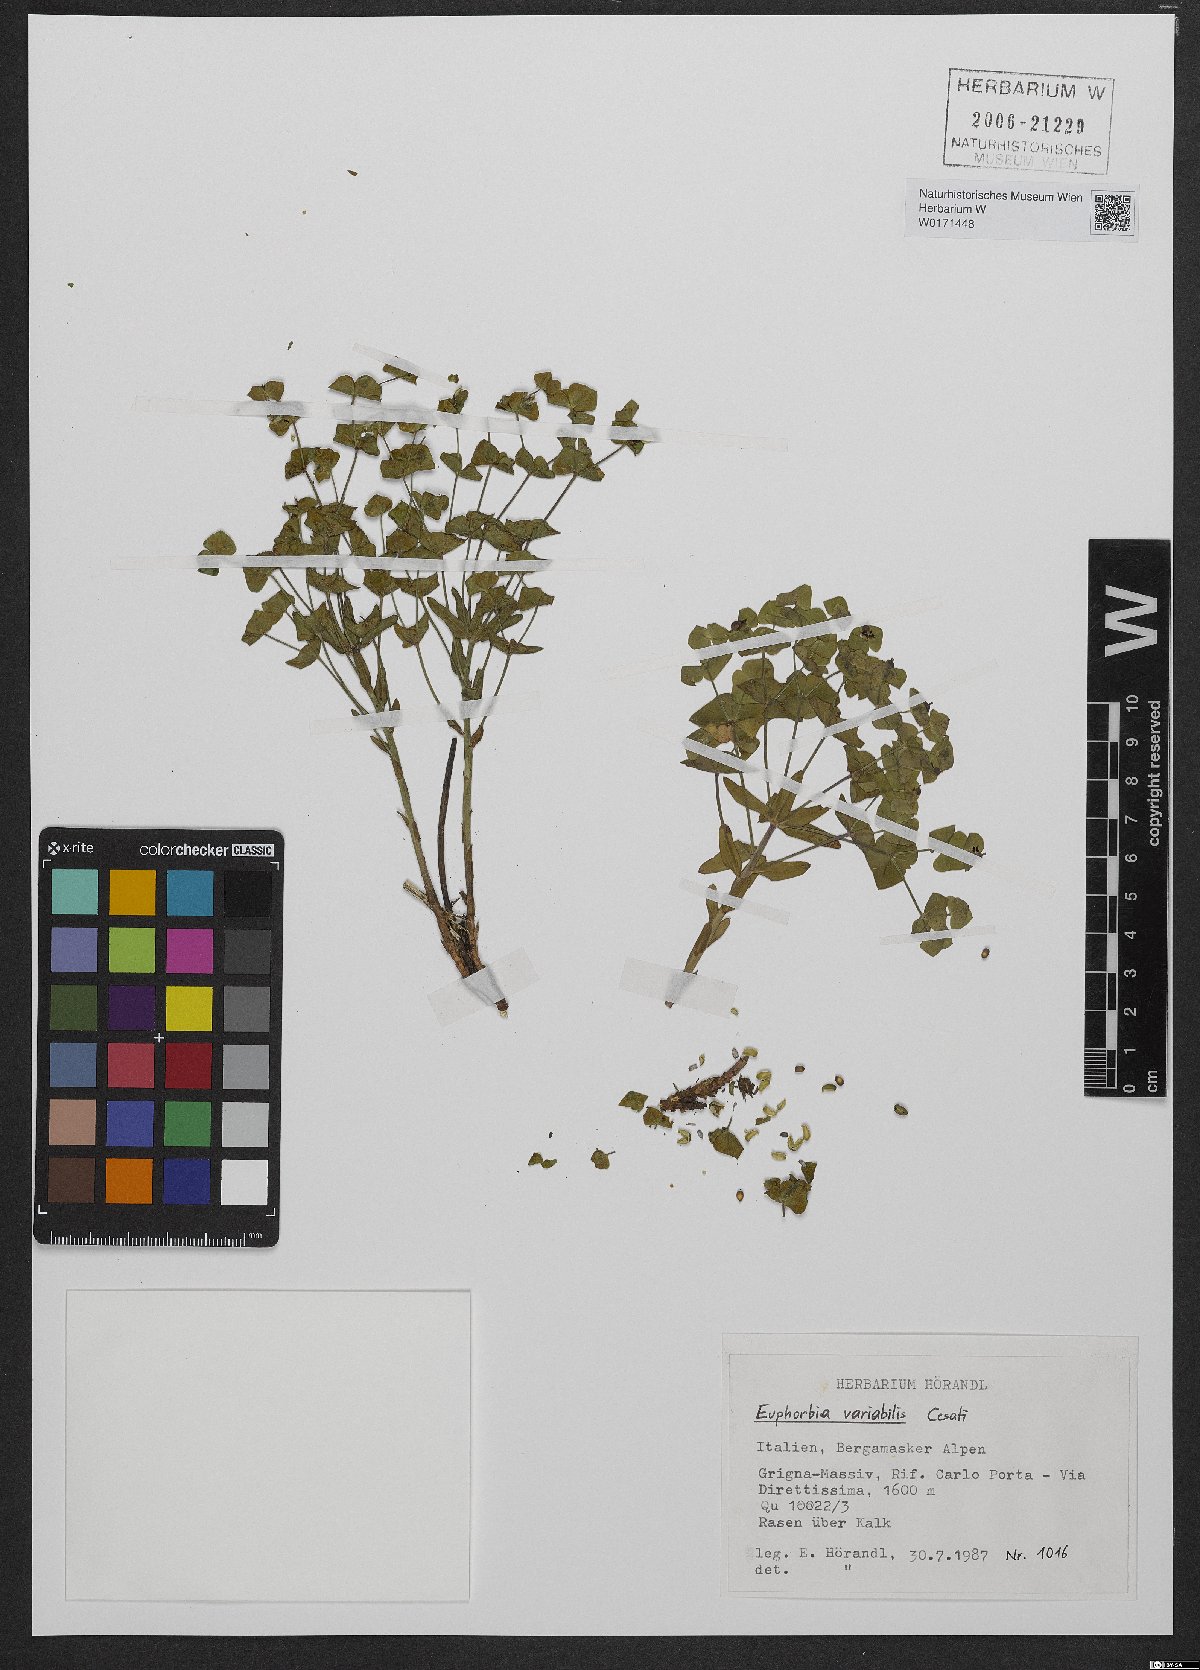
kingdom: Plantae
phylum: Tracheophyta
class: Magnoliopsida
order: Malpighiales
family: Euphorbiaceae
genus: Euphorbia
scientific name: Euphorbia variabilis
